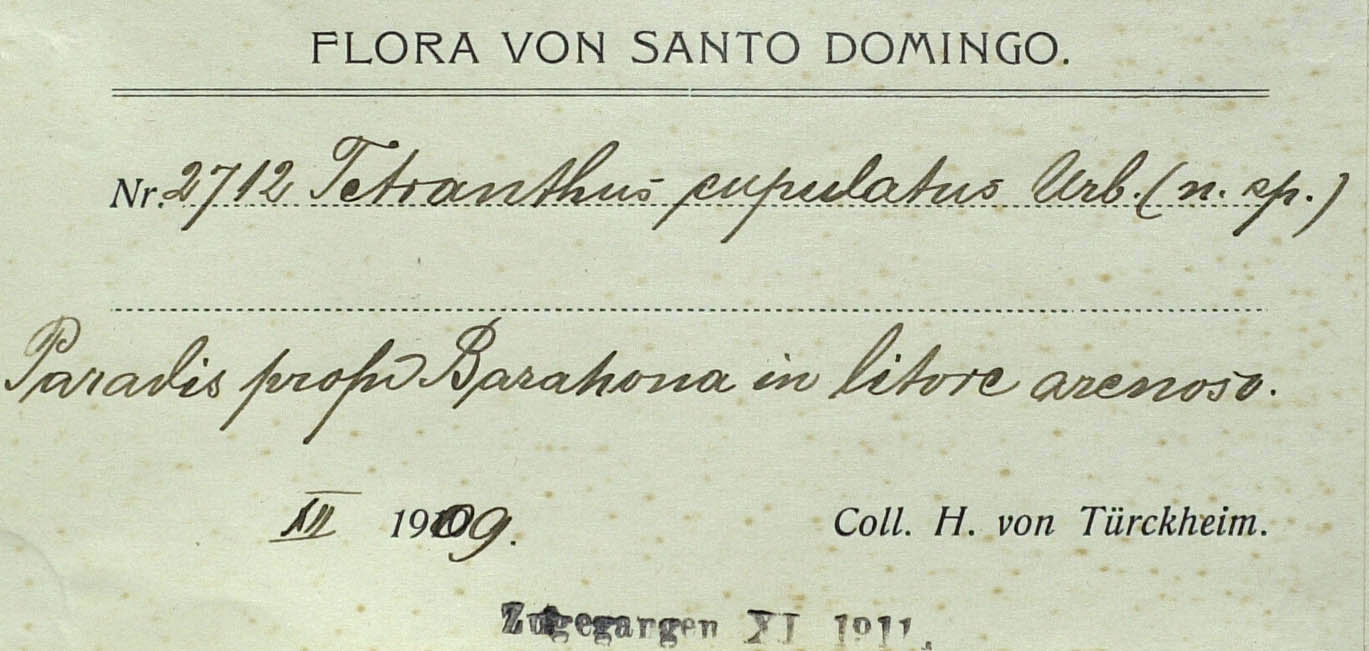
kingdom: Plantae
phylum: Tracheophyta
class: Magnoliopsida
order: Asterales
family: Asteraceae
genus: Tetranthus
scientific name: Tetranthus cupulatus
